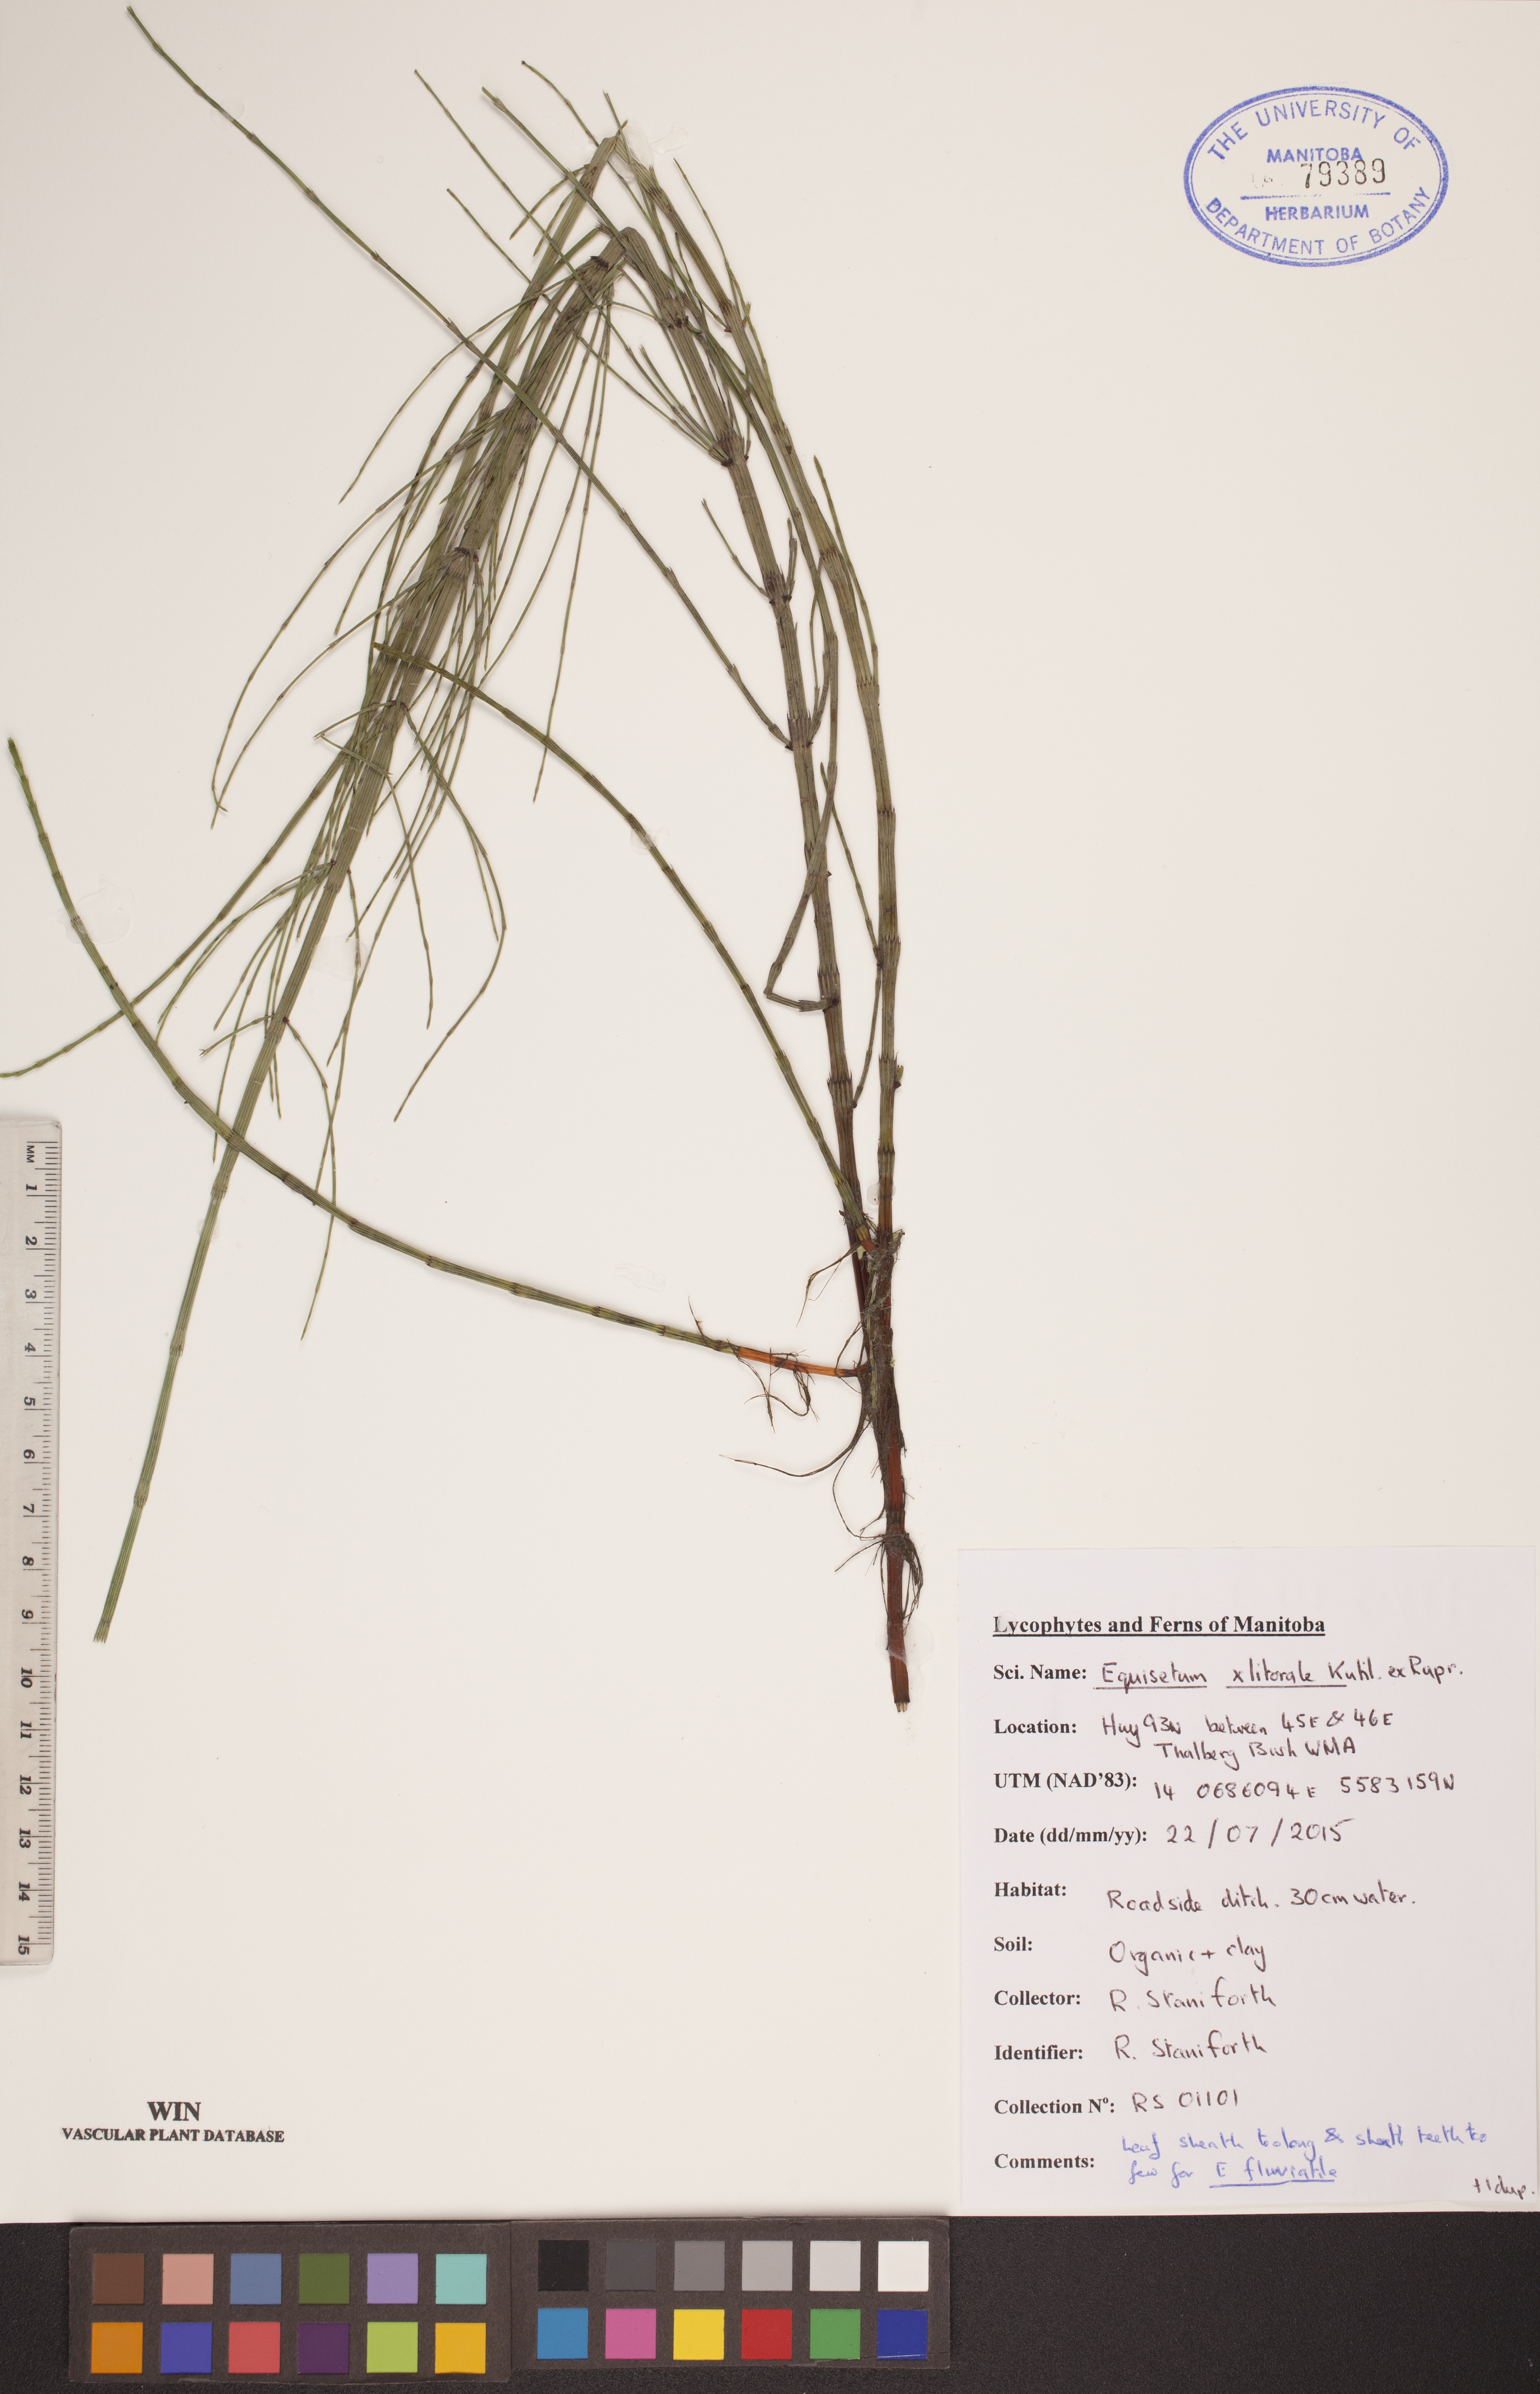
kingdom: Plantae
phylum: Tracheophyta
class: Polypodiopsida
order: Equisetales
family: Equisetaceae
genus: Equisetum
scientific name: Equisetum litorale
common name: Littoral horsetail
